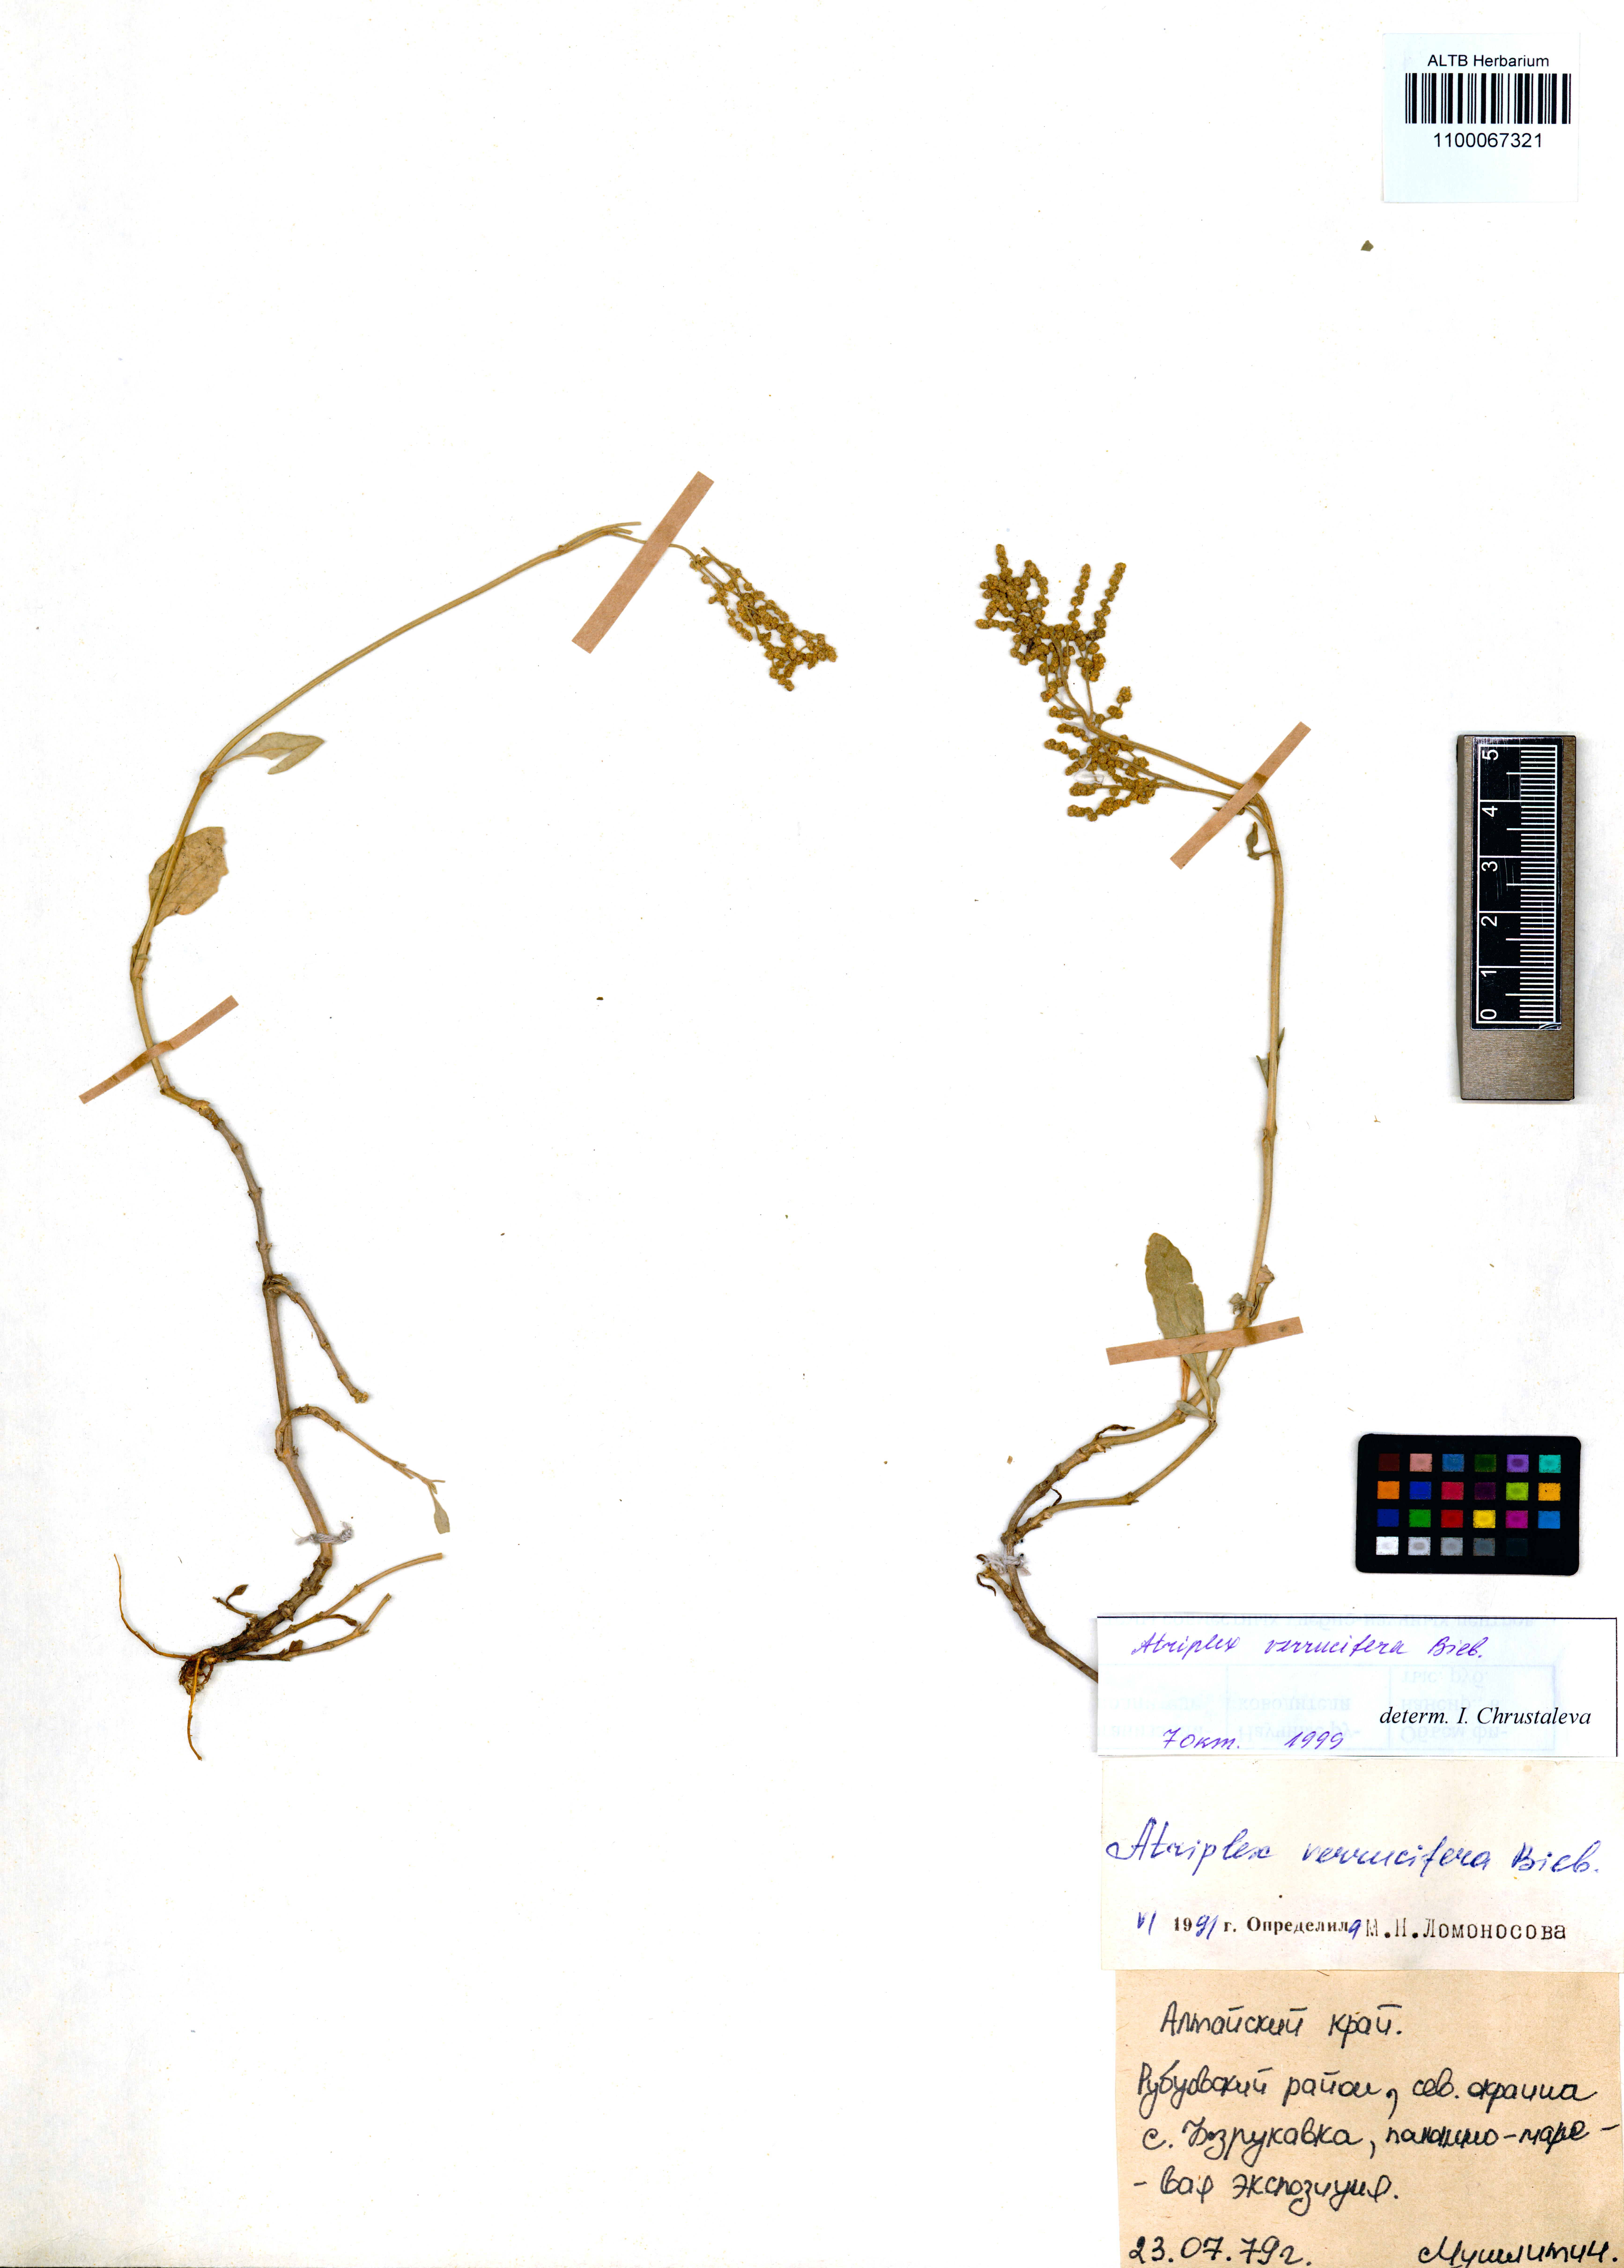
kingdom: Plantae
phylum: Tracheophyta
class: Magnoliopsida
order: Caryophyllales
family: Amaranthaceae
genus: Halimione
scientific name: Halimione verrucifera
